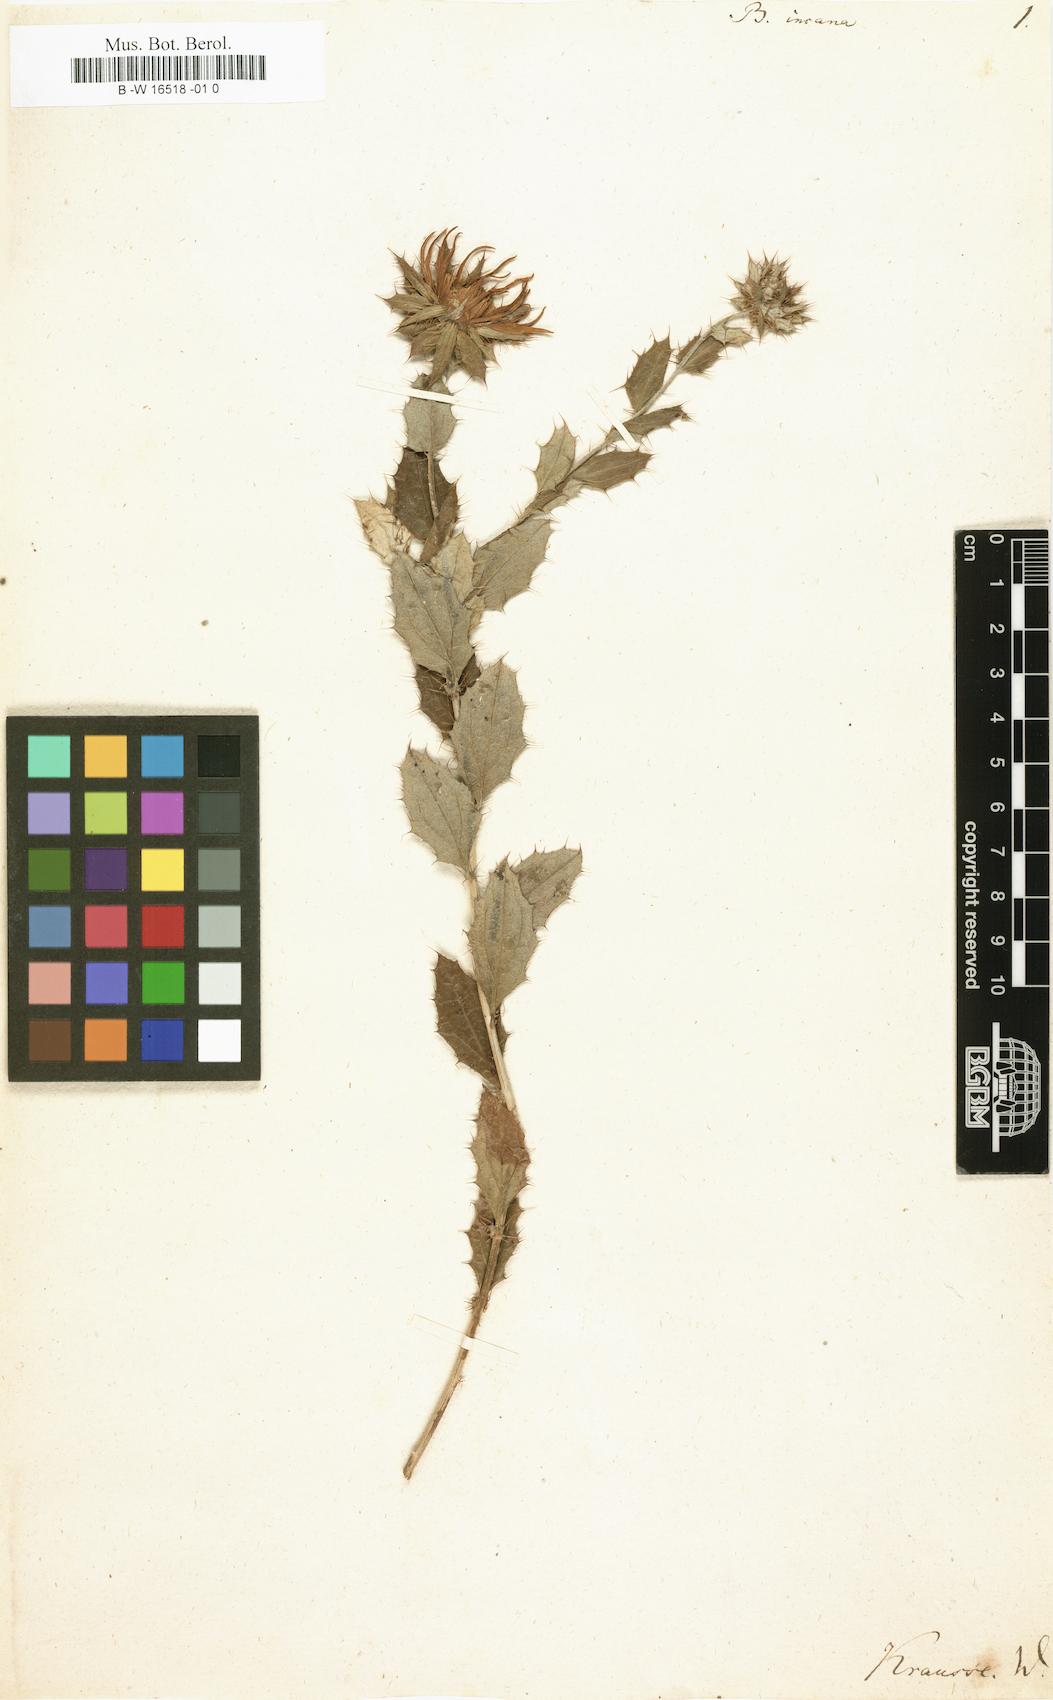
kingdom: Plantae
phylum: Tracheophyta
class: Magnoliopsida
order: Asterales
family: Asteraceae
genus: Berkheya
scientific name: Berkheya fruticosa
